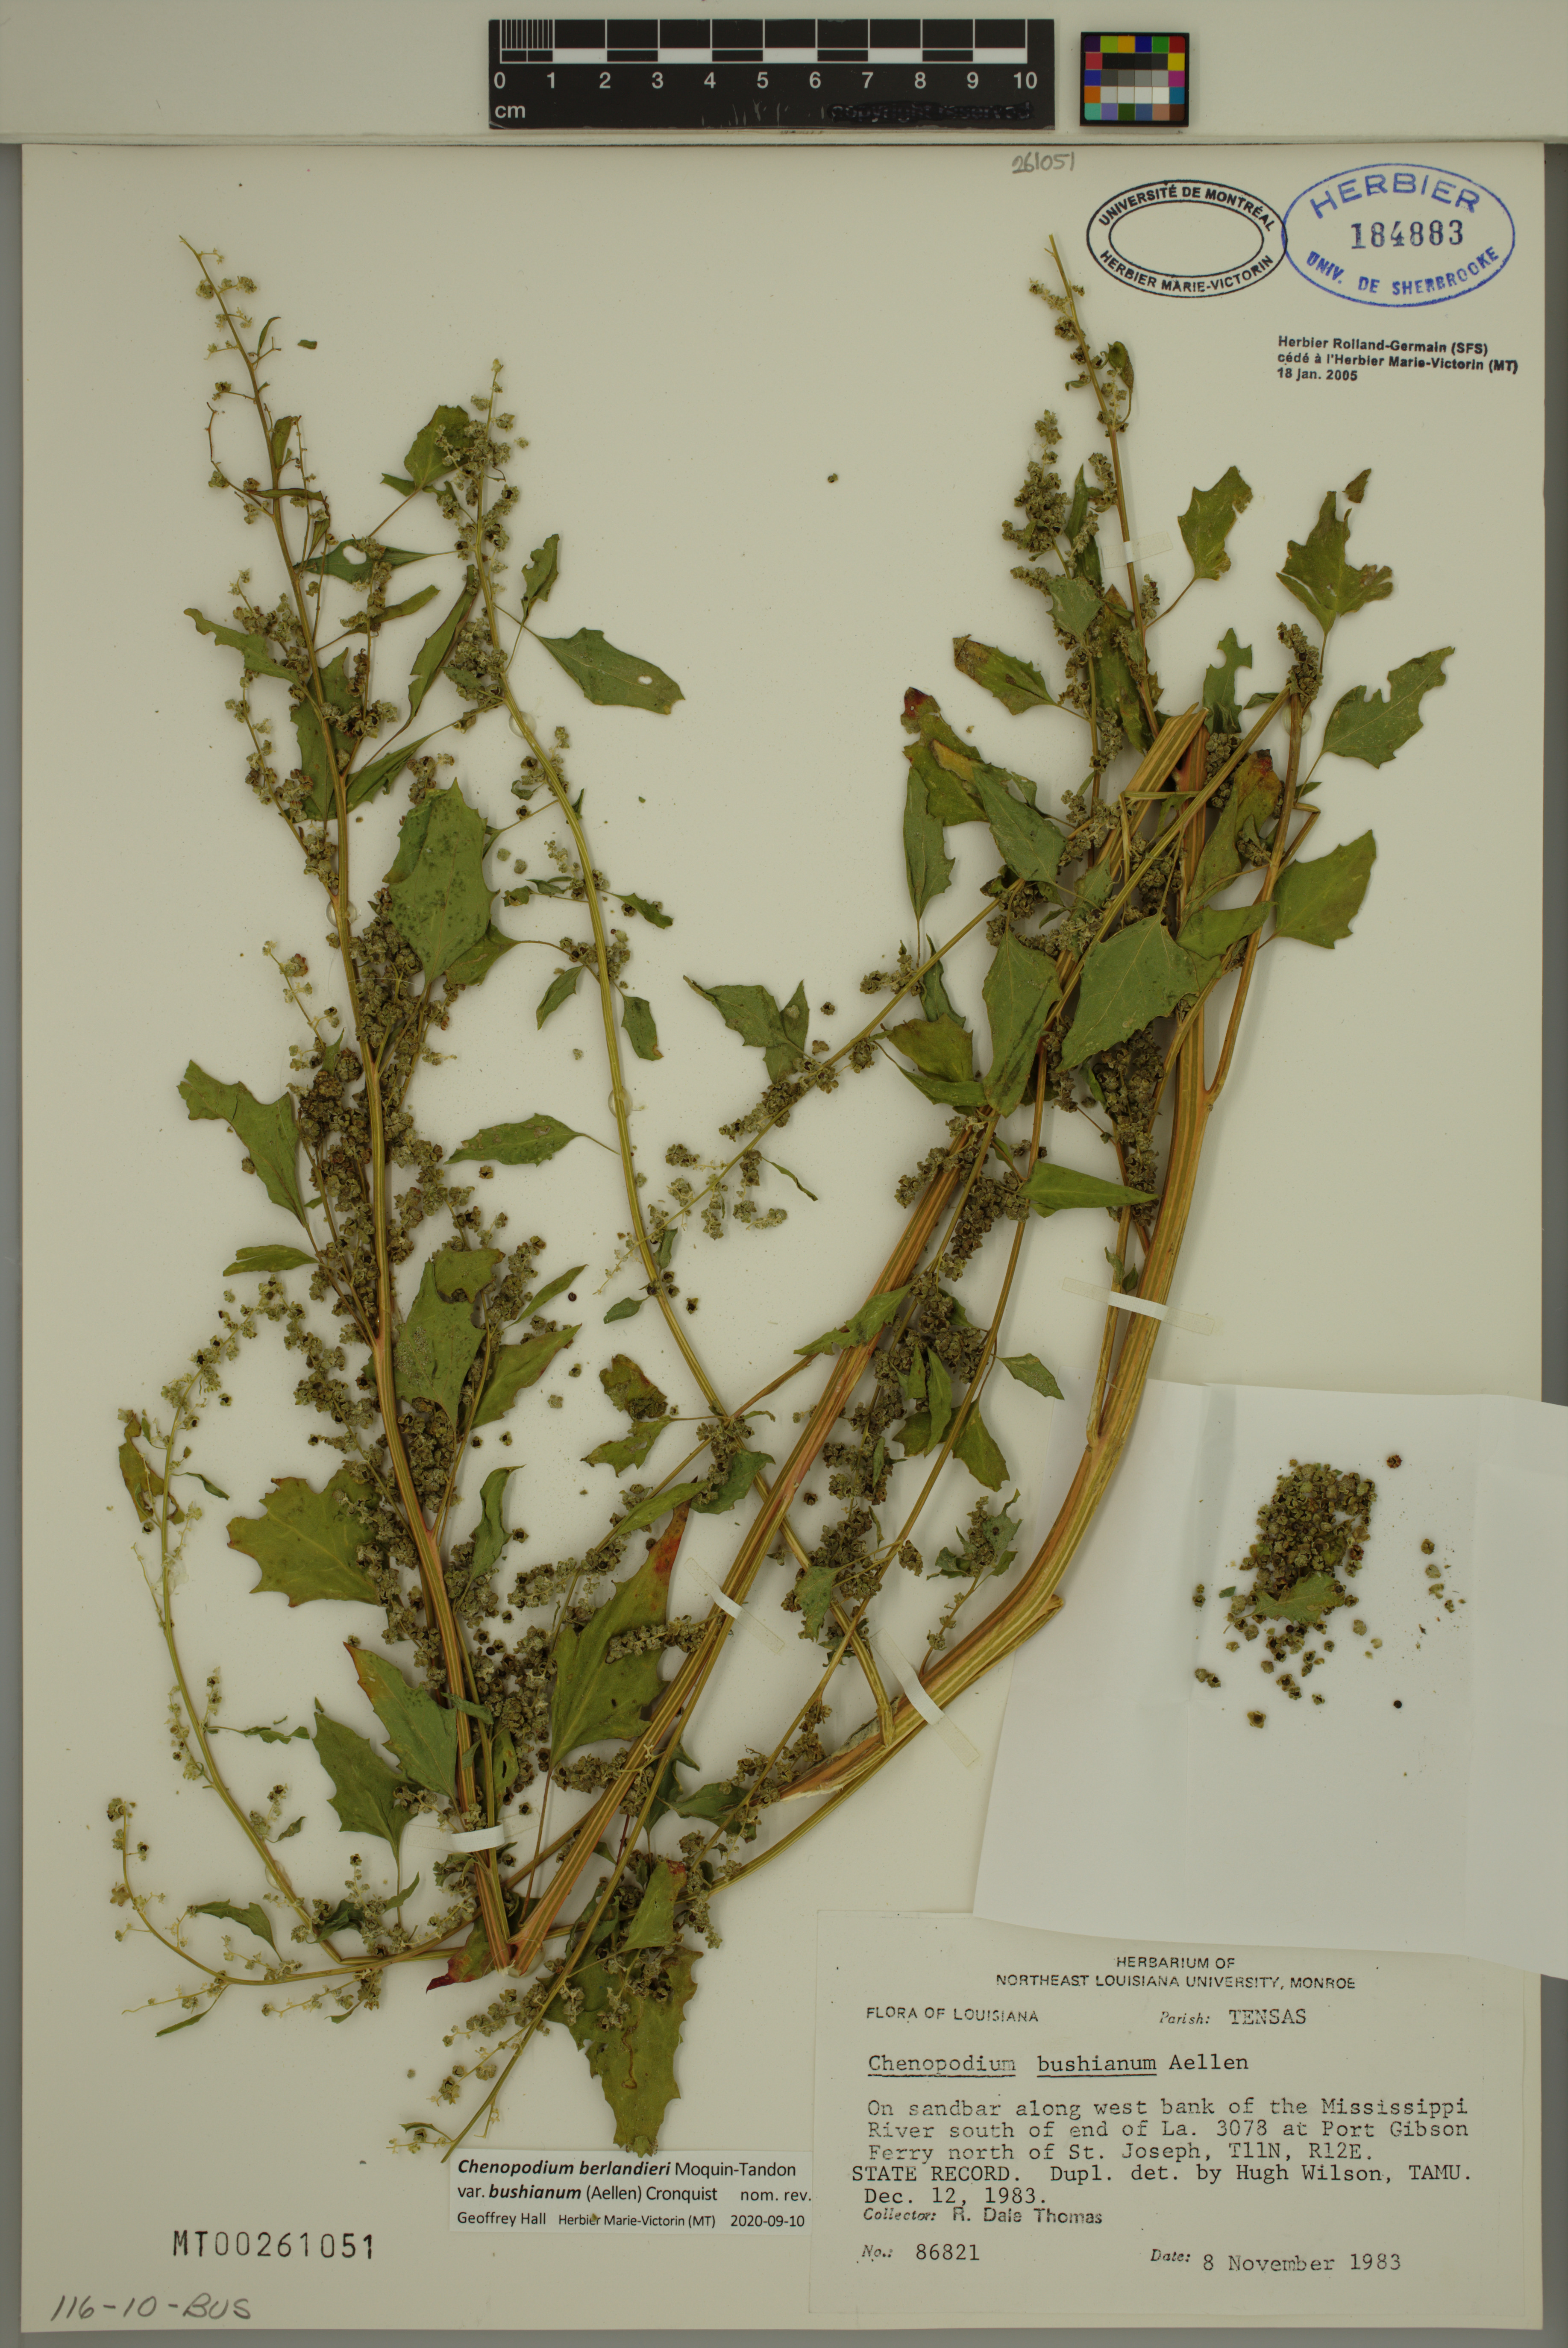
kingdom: Plantae
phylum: Tracheophyta
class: Magnoliopsida
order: Caryophyllales
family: Amaranthaceae
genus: Chenopodium
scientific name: Chenopodium berlandieri
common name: Pit-seed goosefoot
